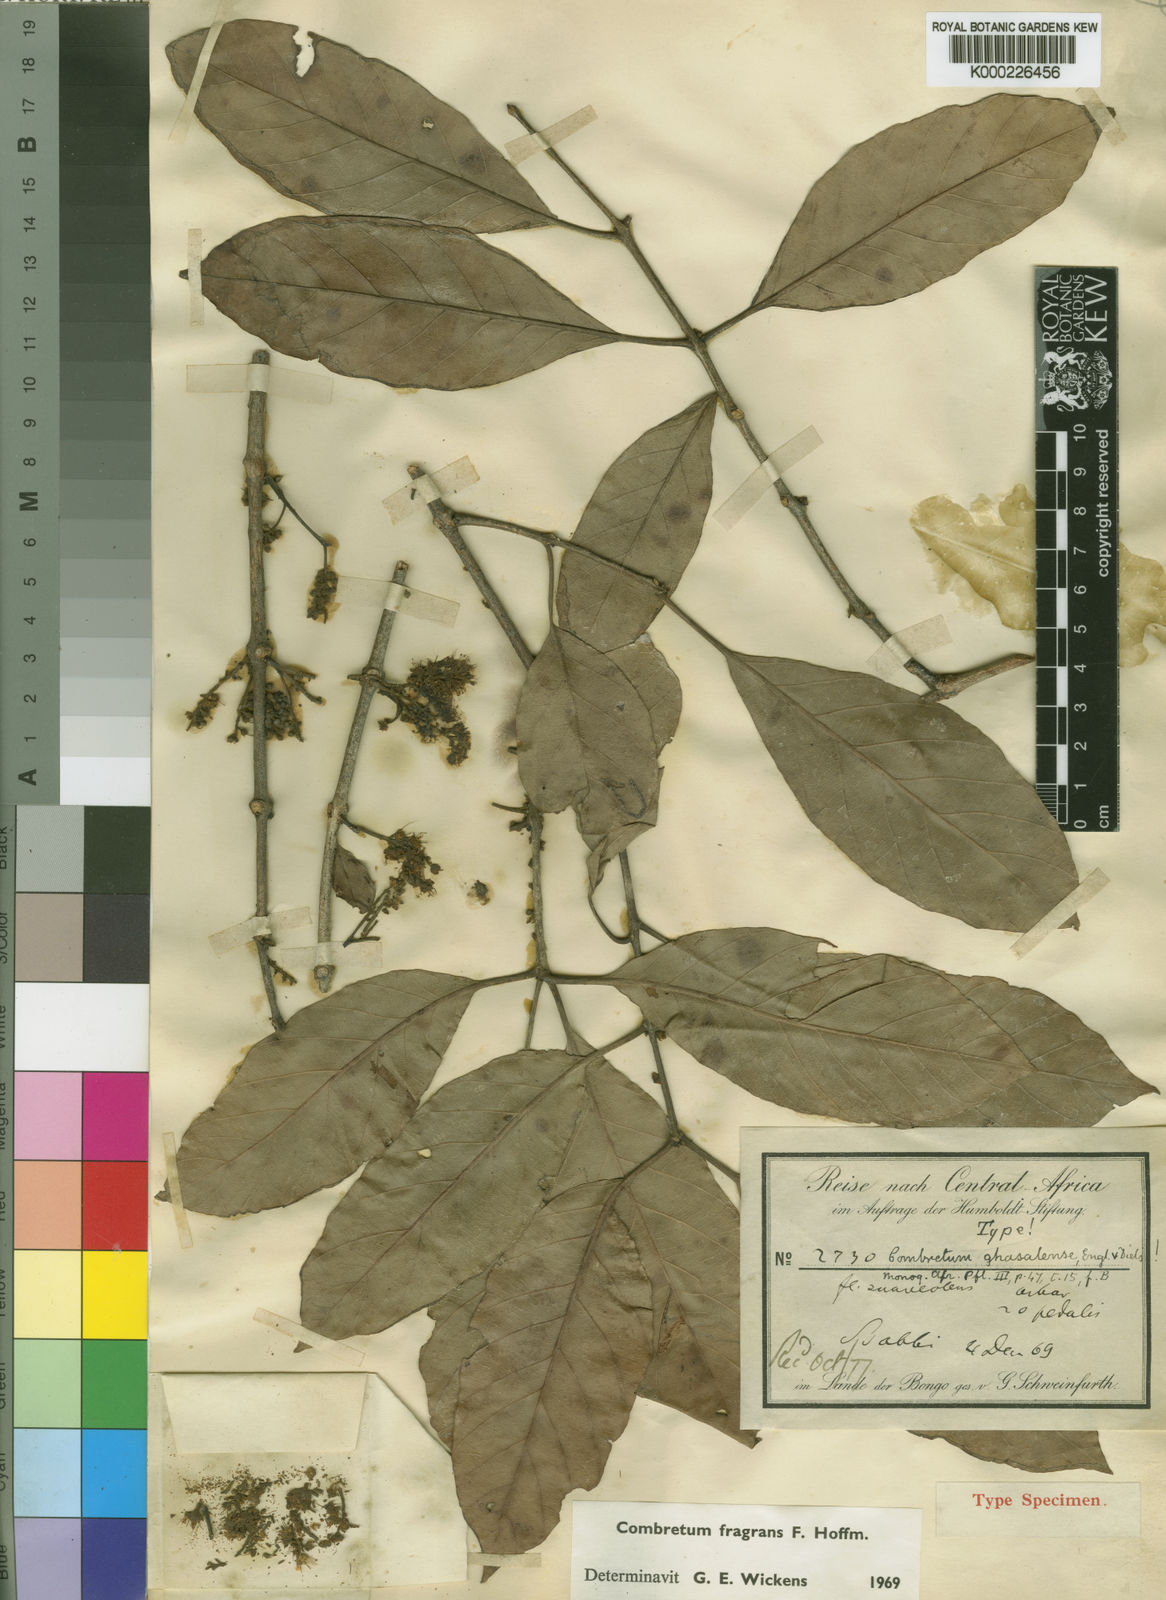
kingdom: Plantae
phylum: Tracheophyta
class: Magnoliopsida
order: Myrtales
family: Combretaceae
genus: Combretum
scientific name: Combretum adenogonium
